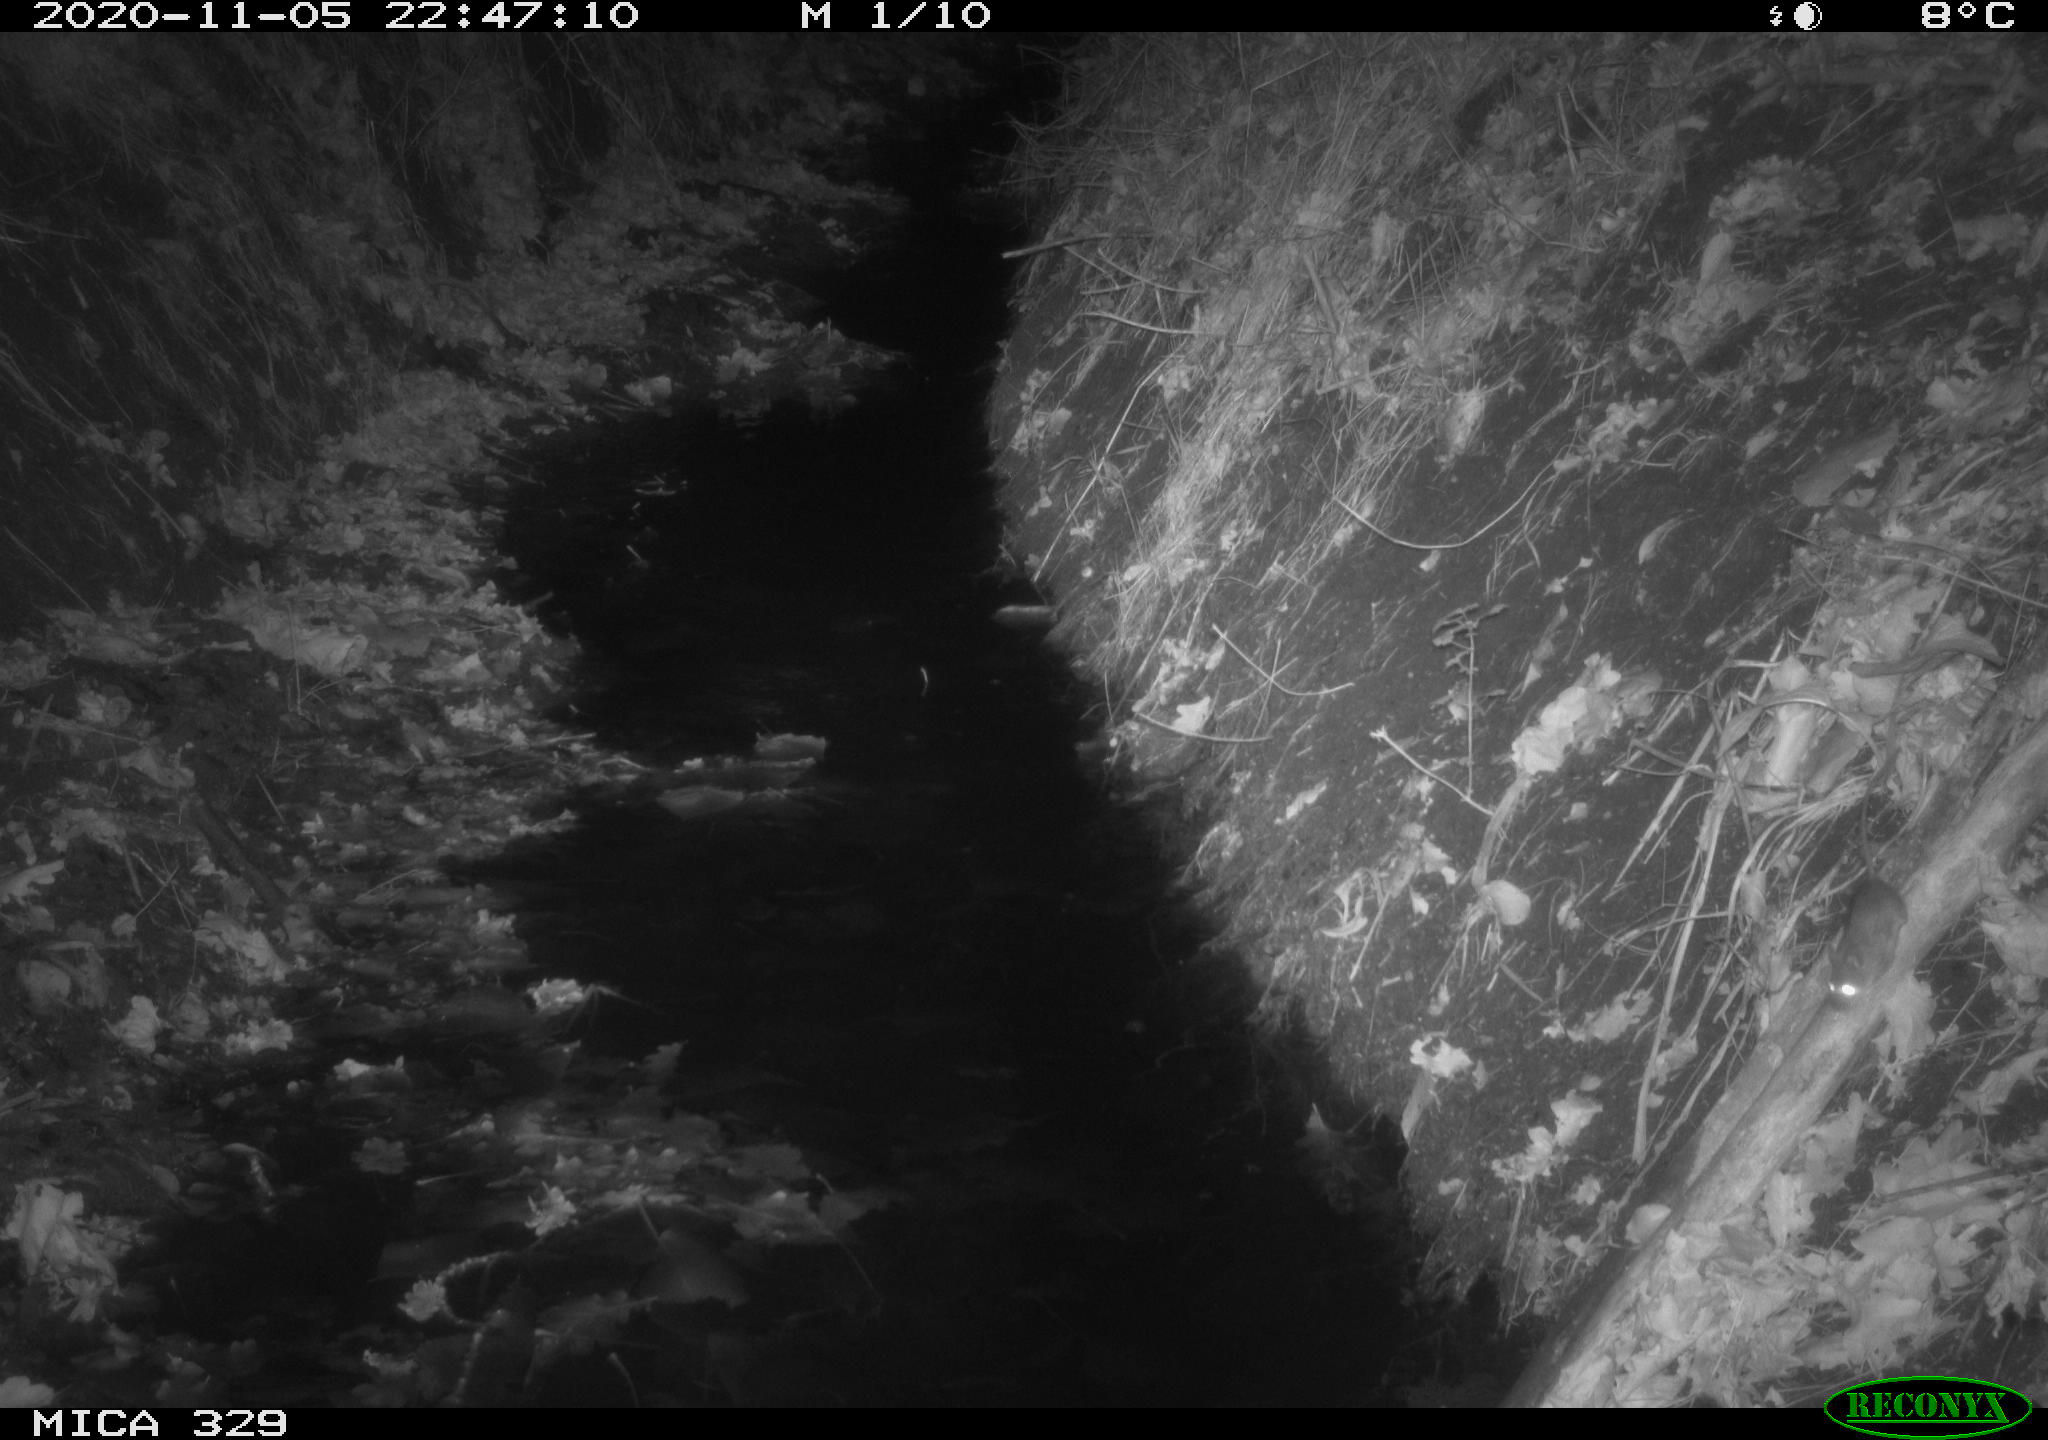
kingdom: Animalia
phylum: Chordata
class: Mammalia
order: Rodentia
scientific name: Rodentia
